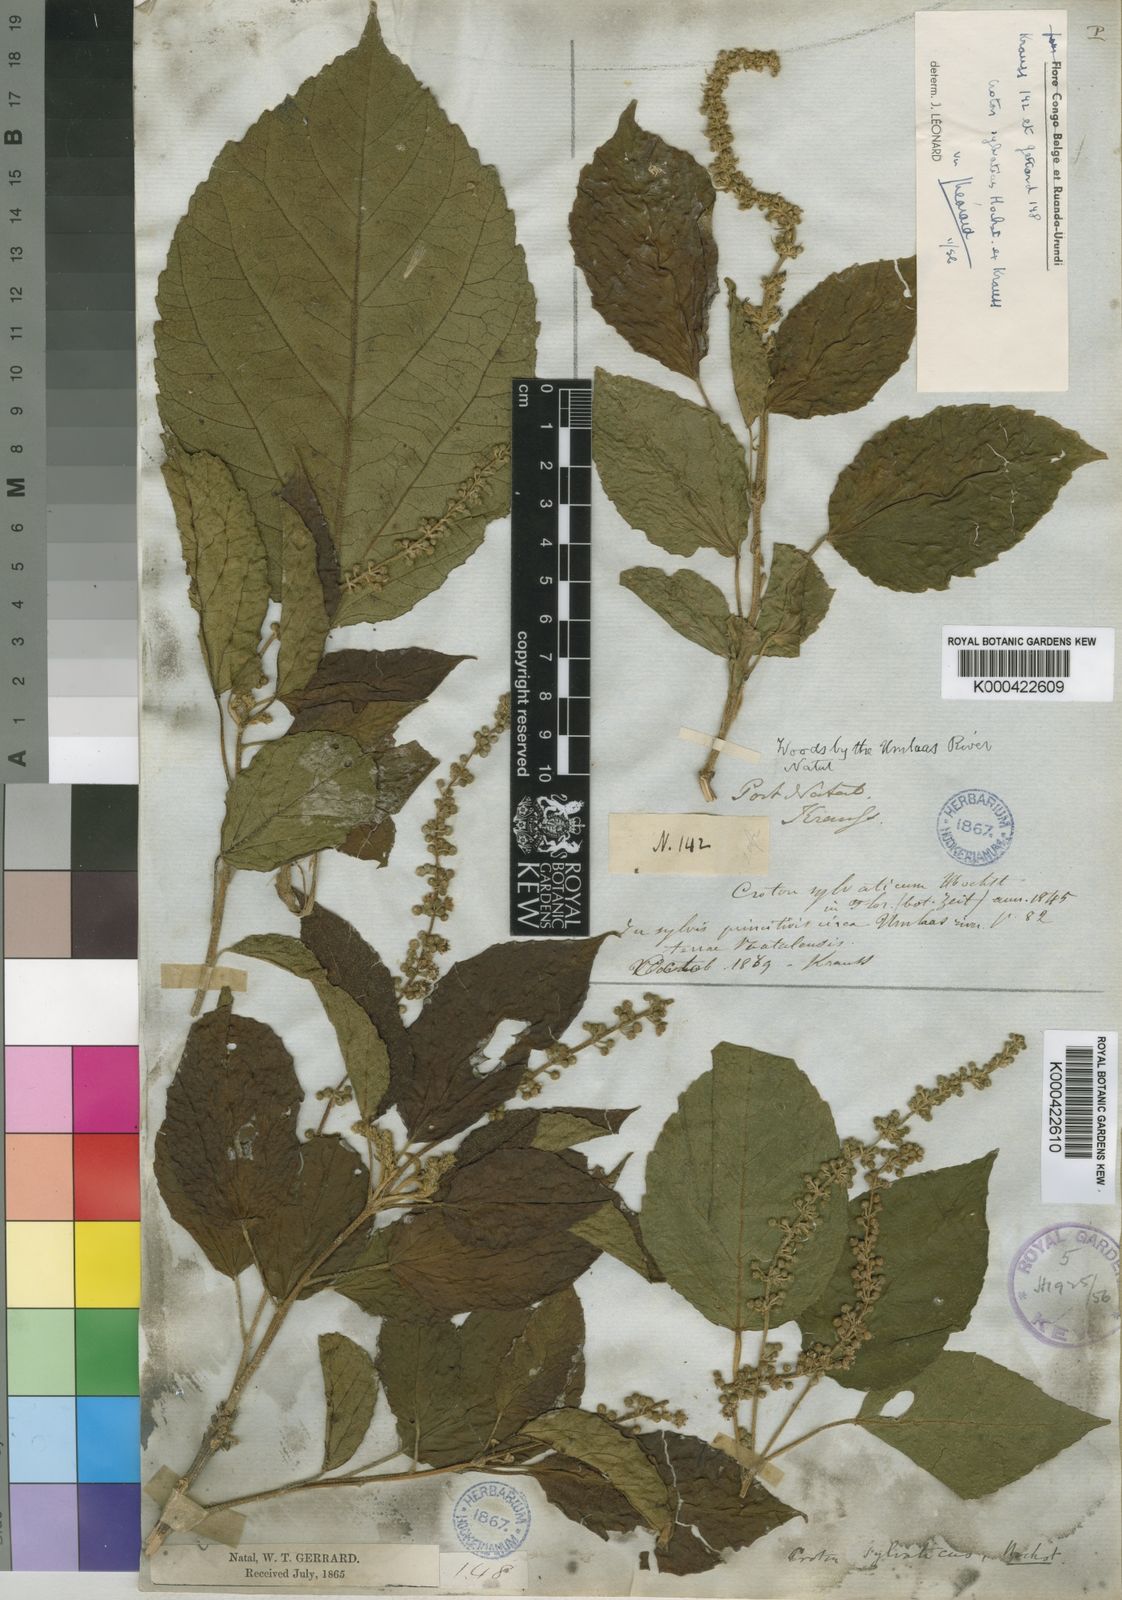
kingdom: Plantae
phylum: Tracheophyta
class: Magnoliopsida
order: Malpighiales
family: Euphorbiaceae
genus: Croton
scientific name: Croton sylvaticus
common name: Forest croton
